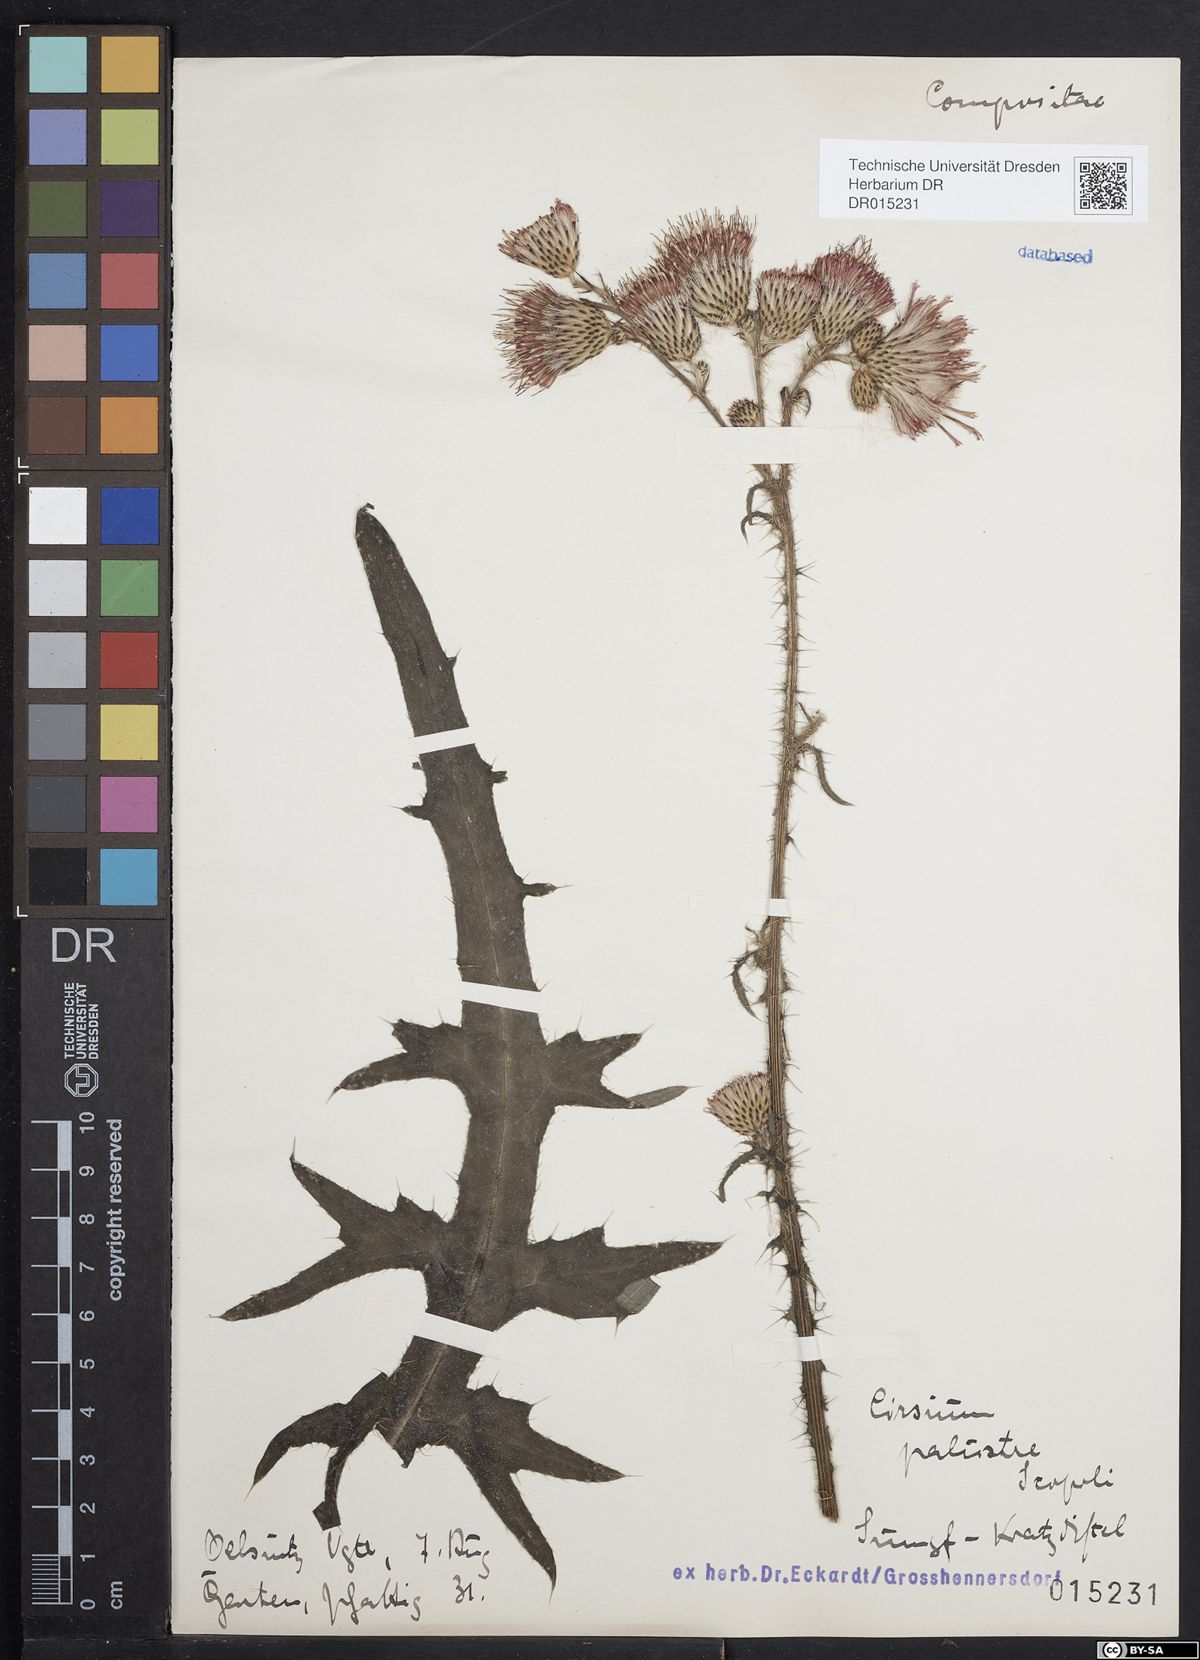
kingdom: Plantae
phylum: Tracheophyta
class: Magnoliopsida
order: Asterales
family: Asteraceae
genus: Cirsium
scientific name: Cirsium palustre
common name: Marsh thistle
